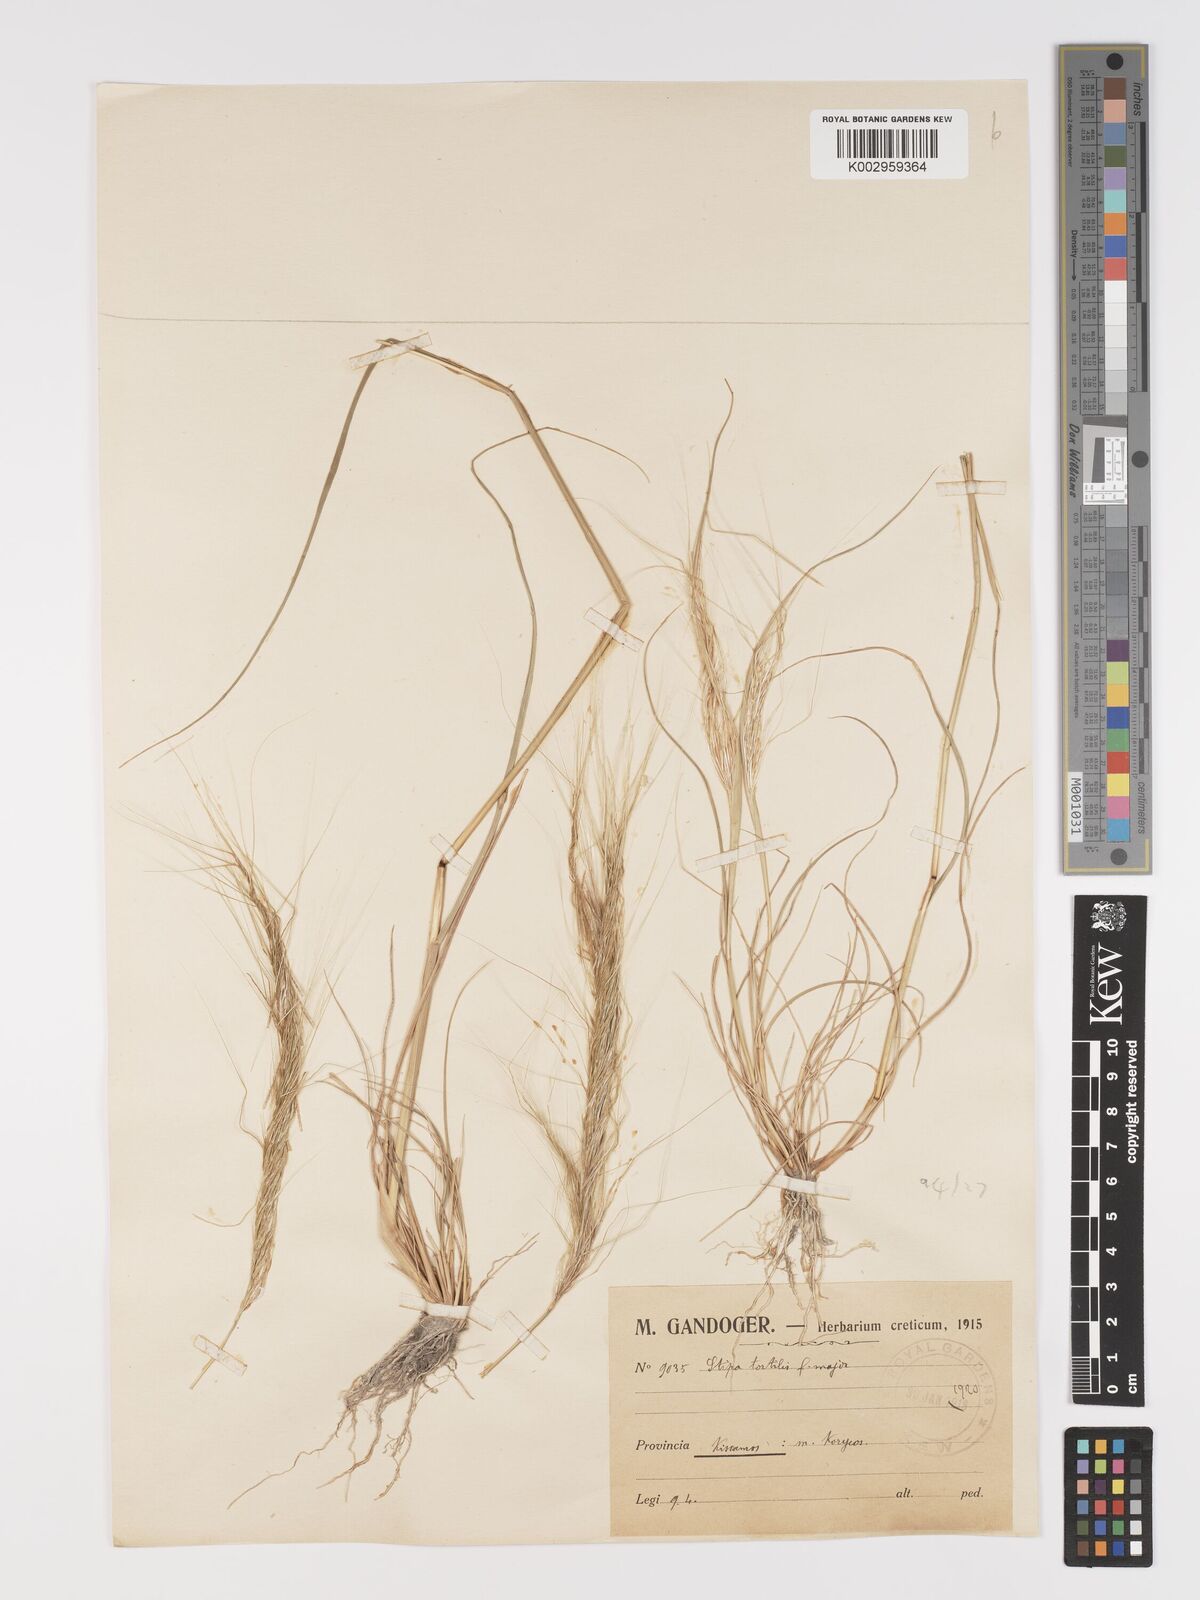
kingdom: Plantae
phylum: Tracheophyta
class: Liliopsida
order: Poales
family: Poaceae
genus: Stipellula
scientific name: Stipellula capensis
